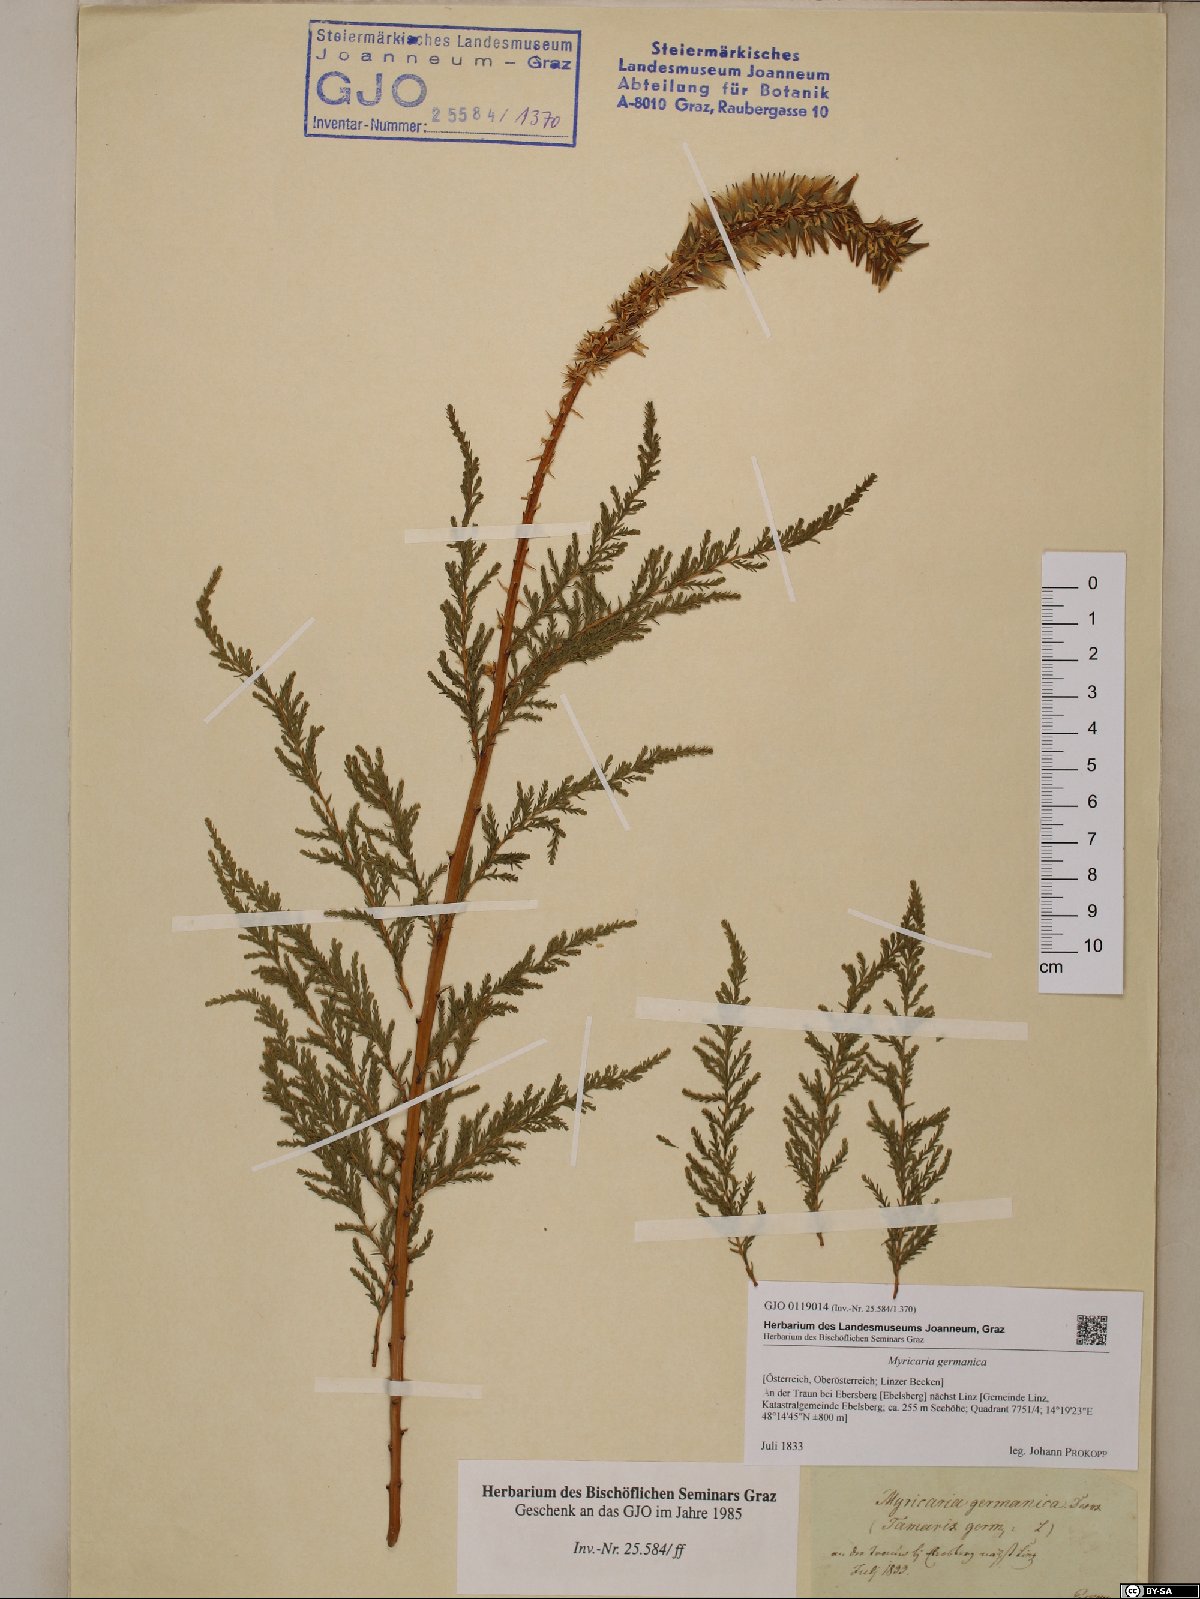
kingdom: Plantae
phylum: Tracheophyta
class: Magnoliopsida
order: Caryophyllales
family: Tamaricaceae
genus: Myricaria
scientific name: Myricaria germanica
